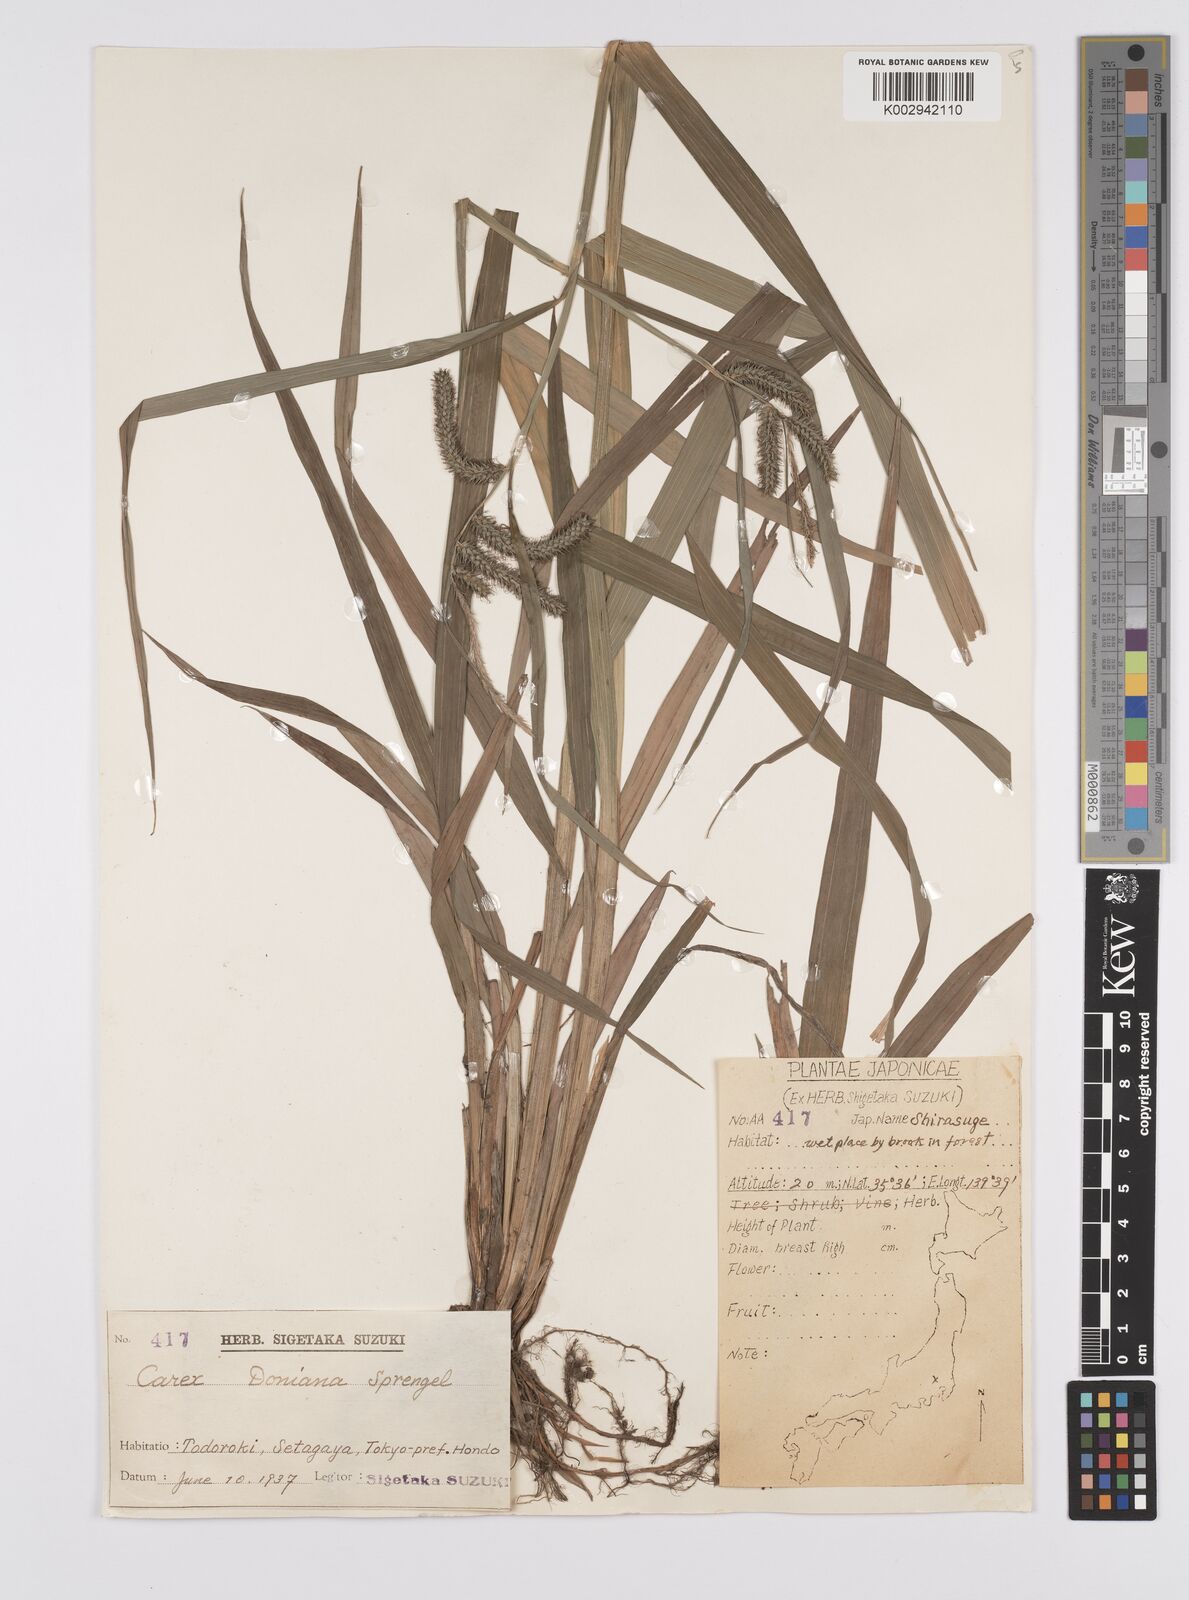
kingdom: Plantae
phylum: Tracheophyta
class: Liliopsida
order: Poales
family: Cyperaceae
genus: Carex
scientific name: Carex japonica
